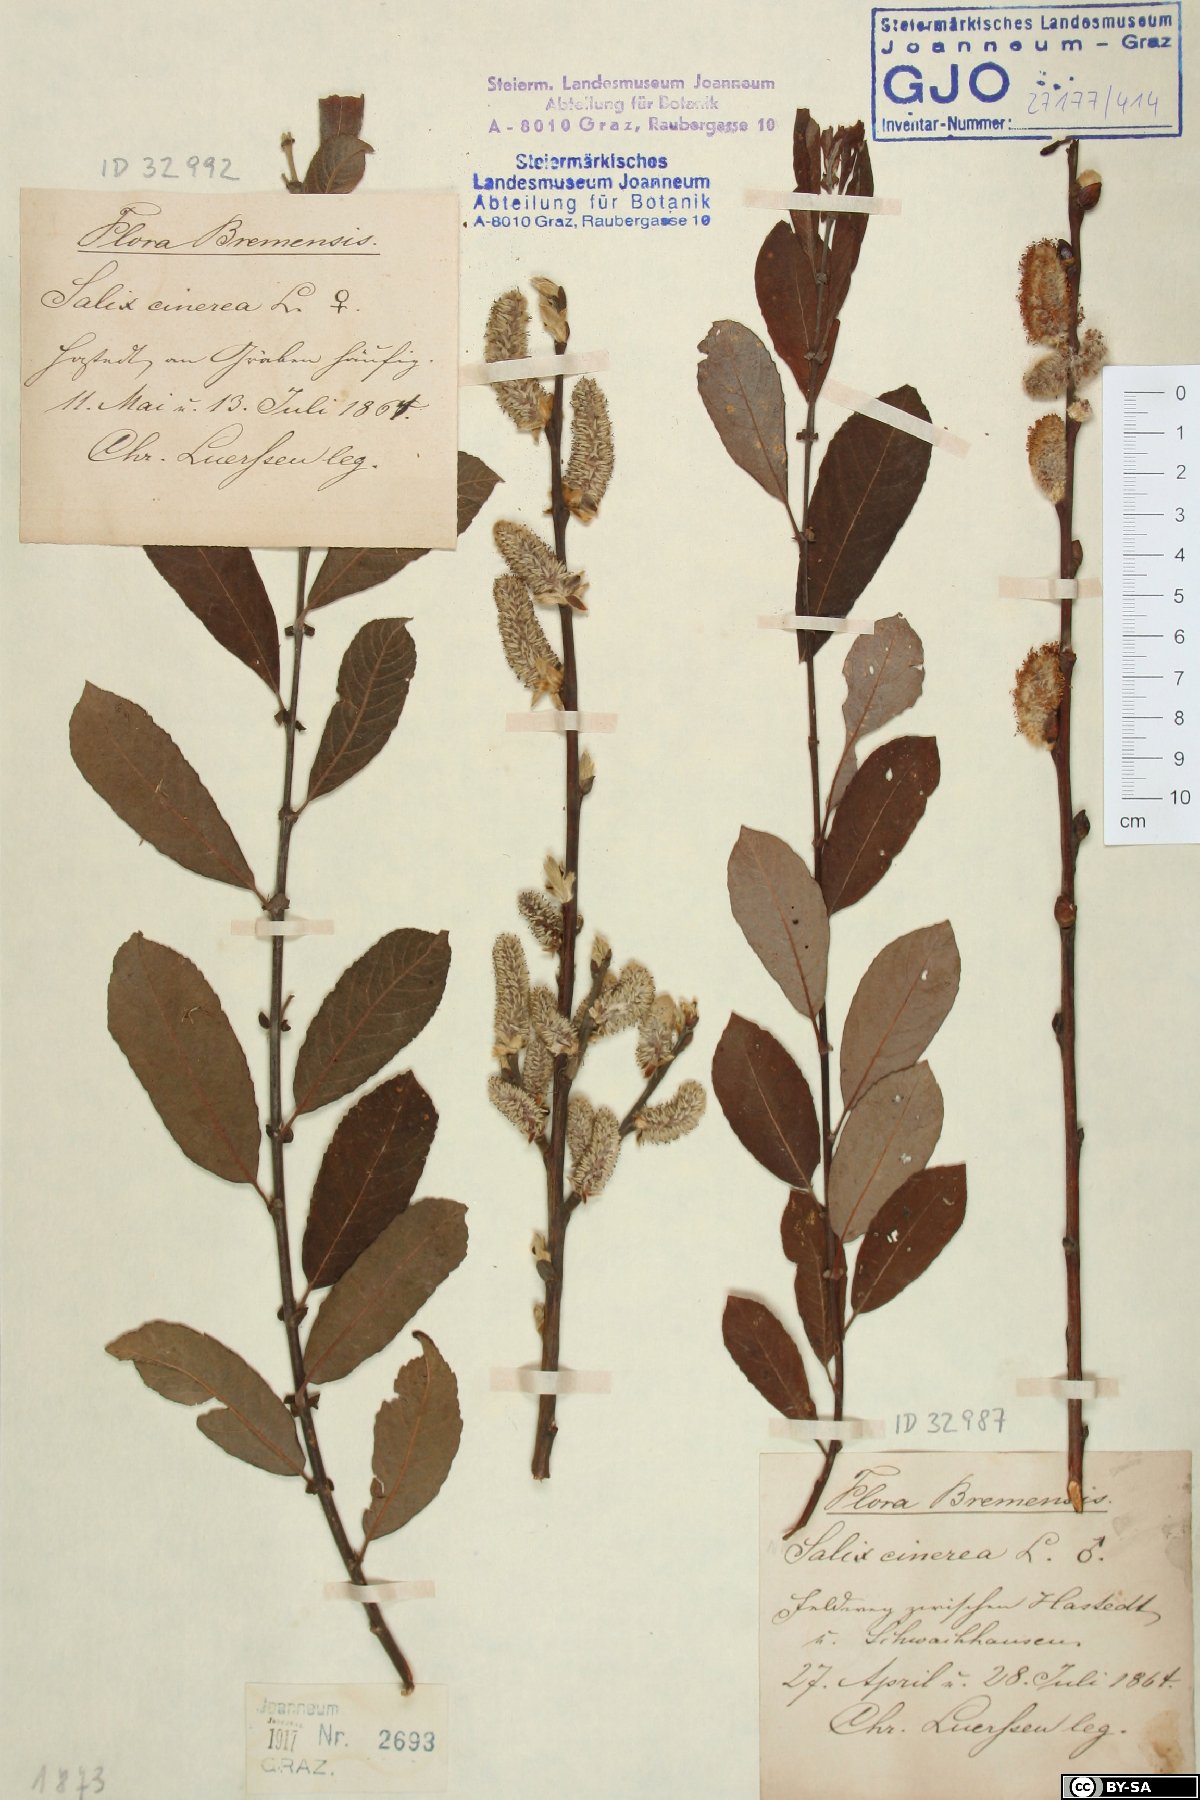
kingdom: Plantae
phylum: Tracheophyta
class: Magnoliopsida
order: Malpighiales
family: Salicaceae
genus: Salix
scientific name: Salix cinerea
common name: Common sallow
